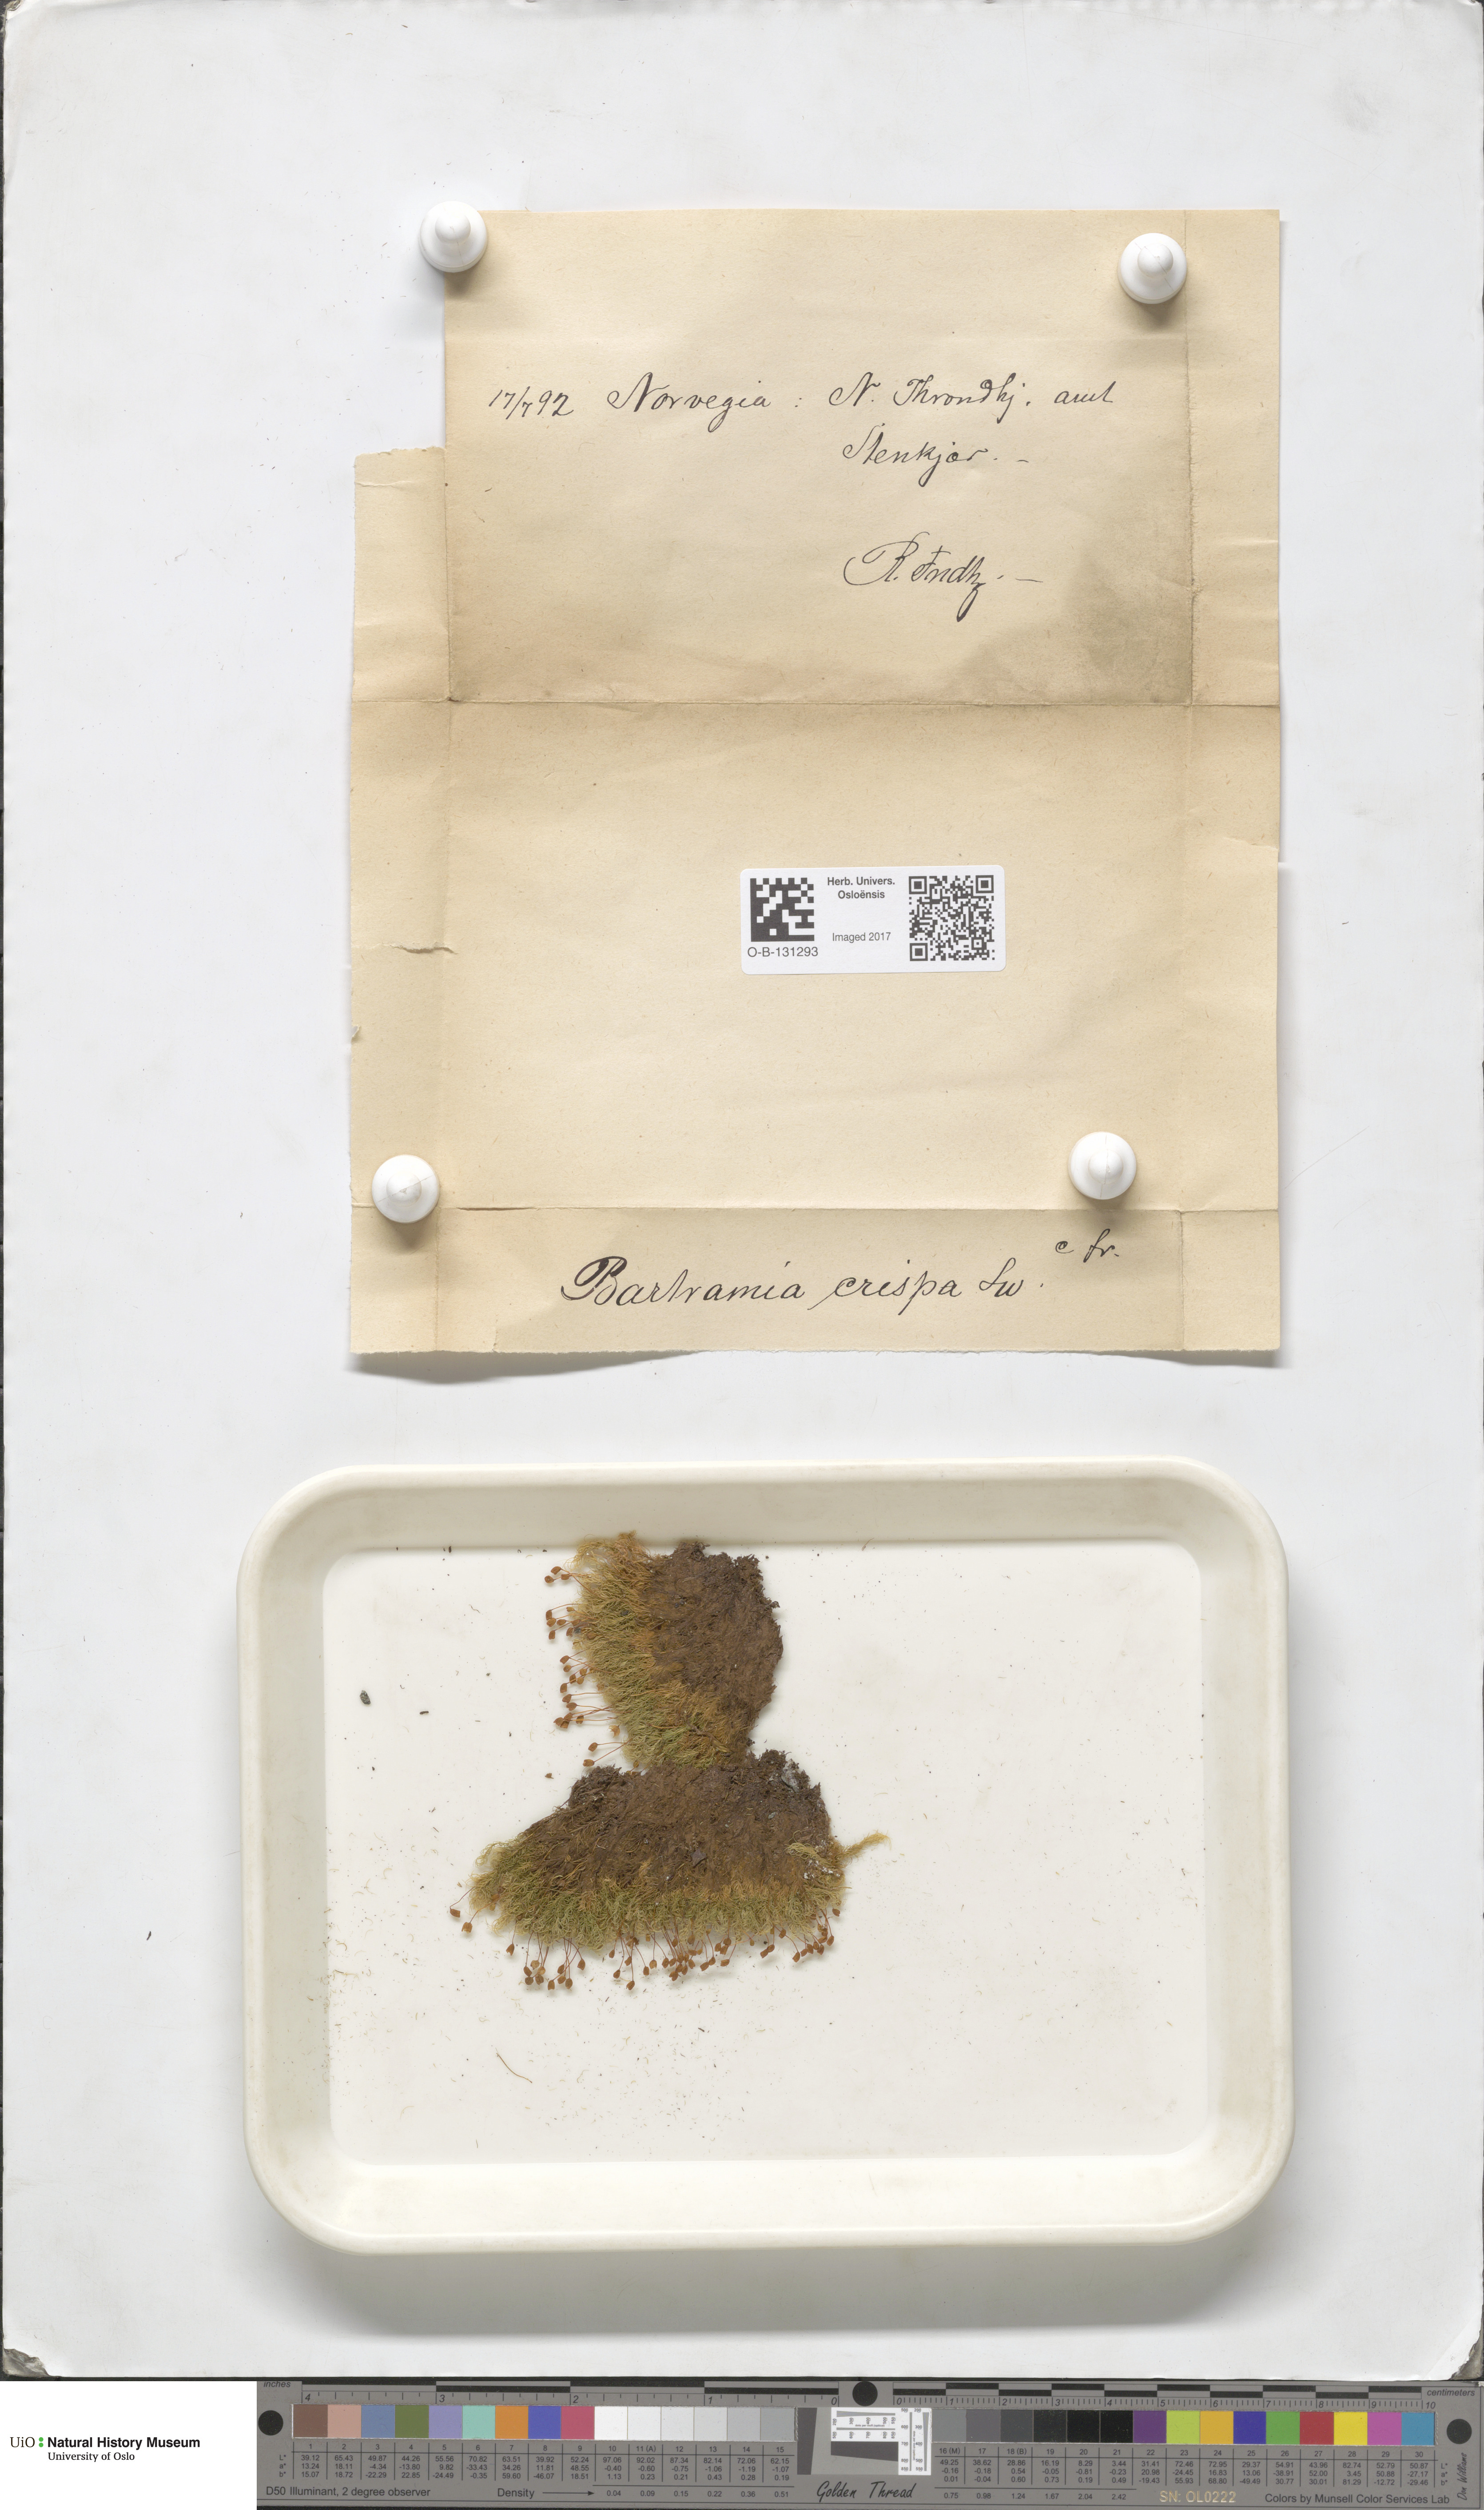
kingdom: Plantae
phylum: Bryophyta
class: Bryopsida
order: Bartramiales
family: Bartramiaceae
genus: Bartramia
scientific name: Bartramia pomiformis
